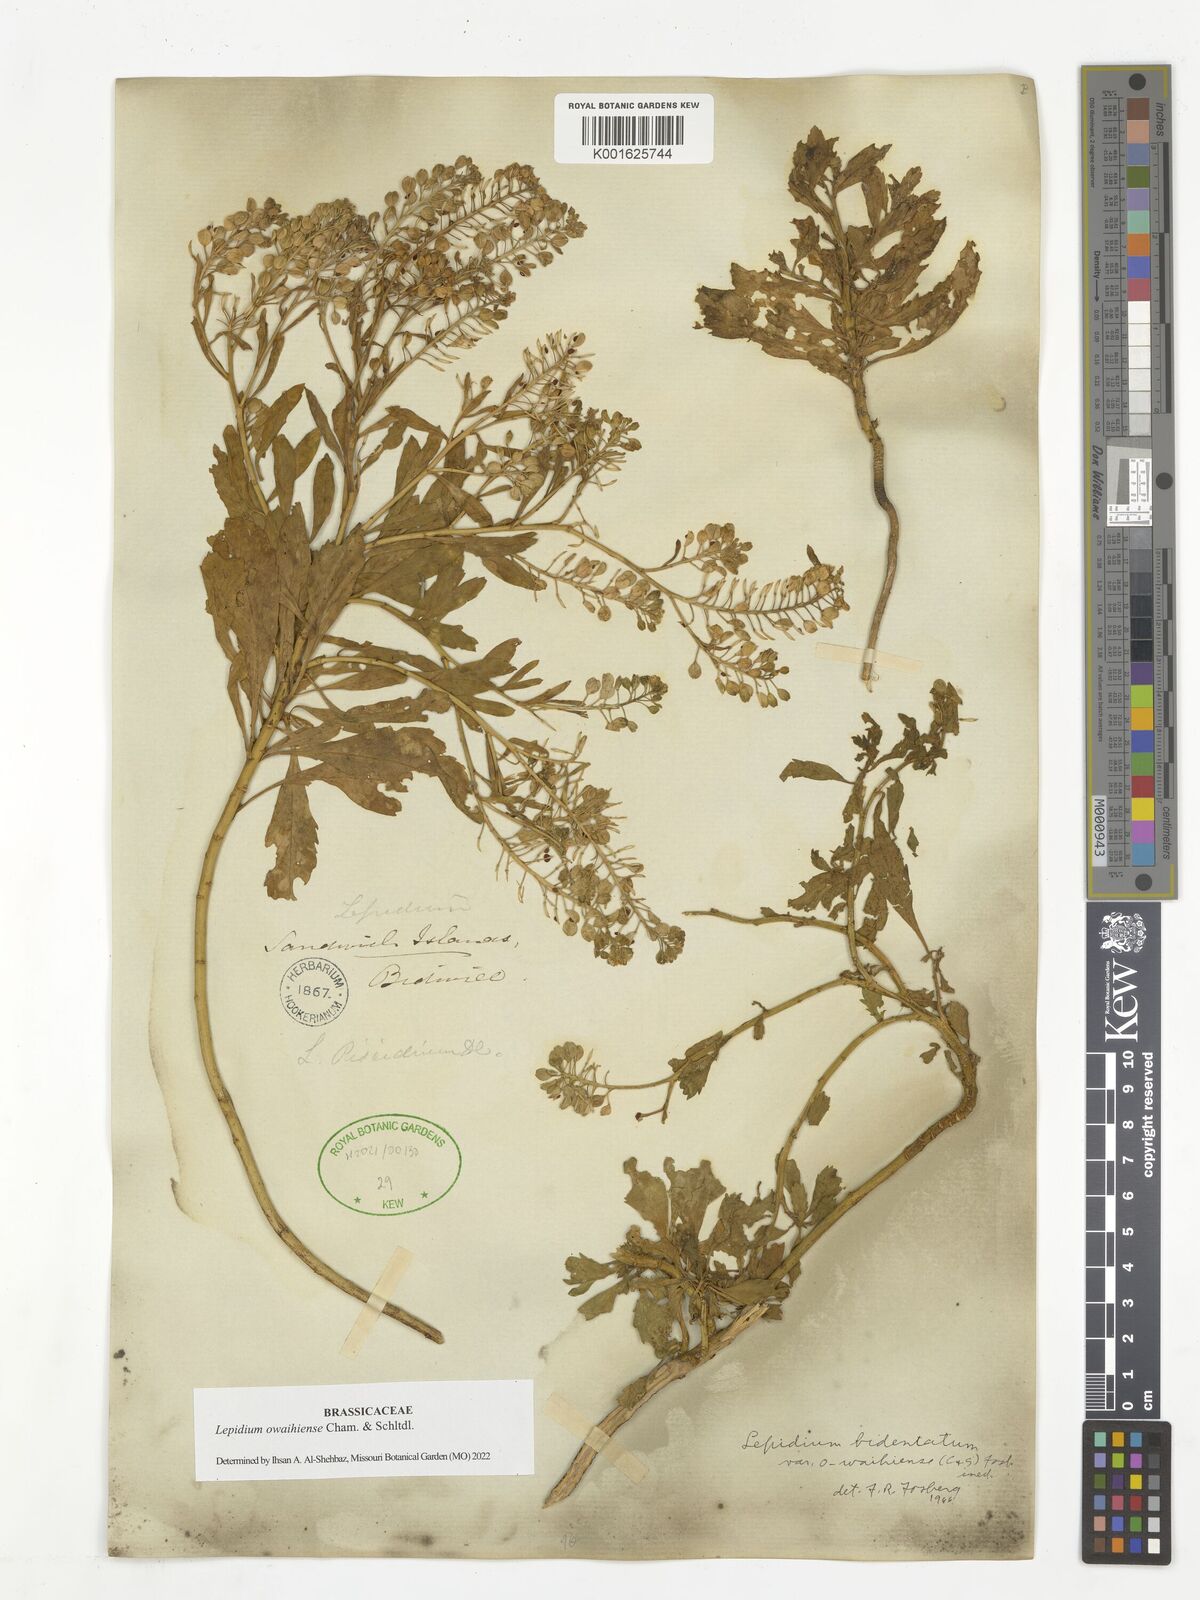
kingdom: Plantae
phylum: Tracheophyta
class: Magnoliopsida
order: Brassicales
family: Brassicaceae
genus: Lepidium
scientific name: Lepidium owaihiense
